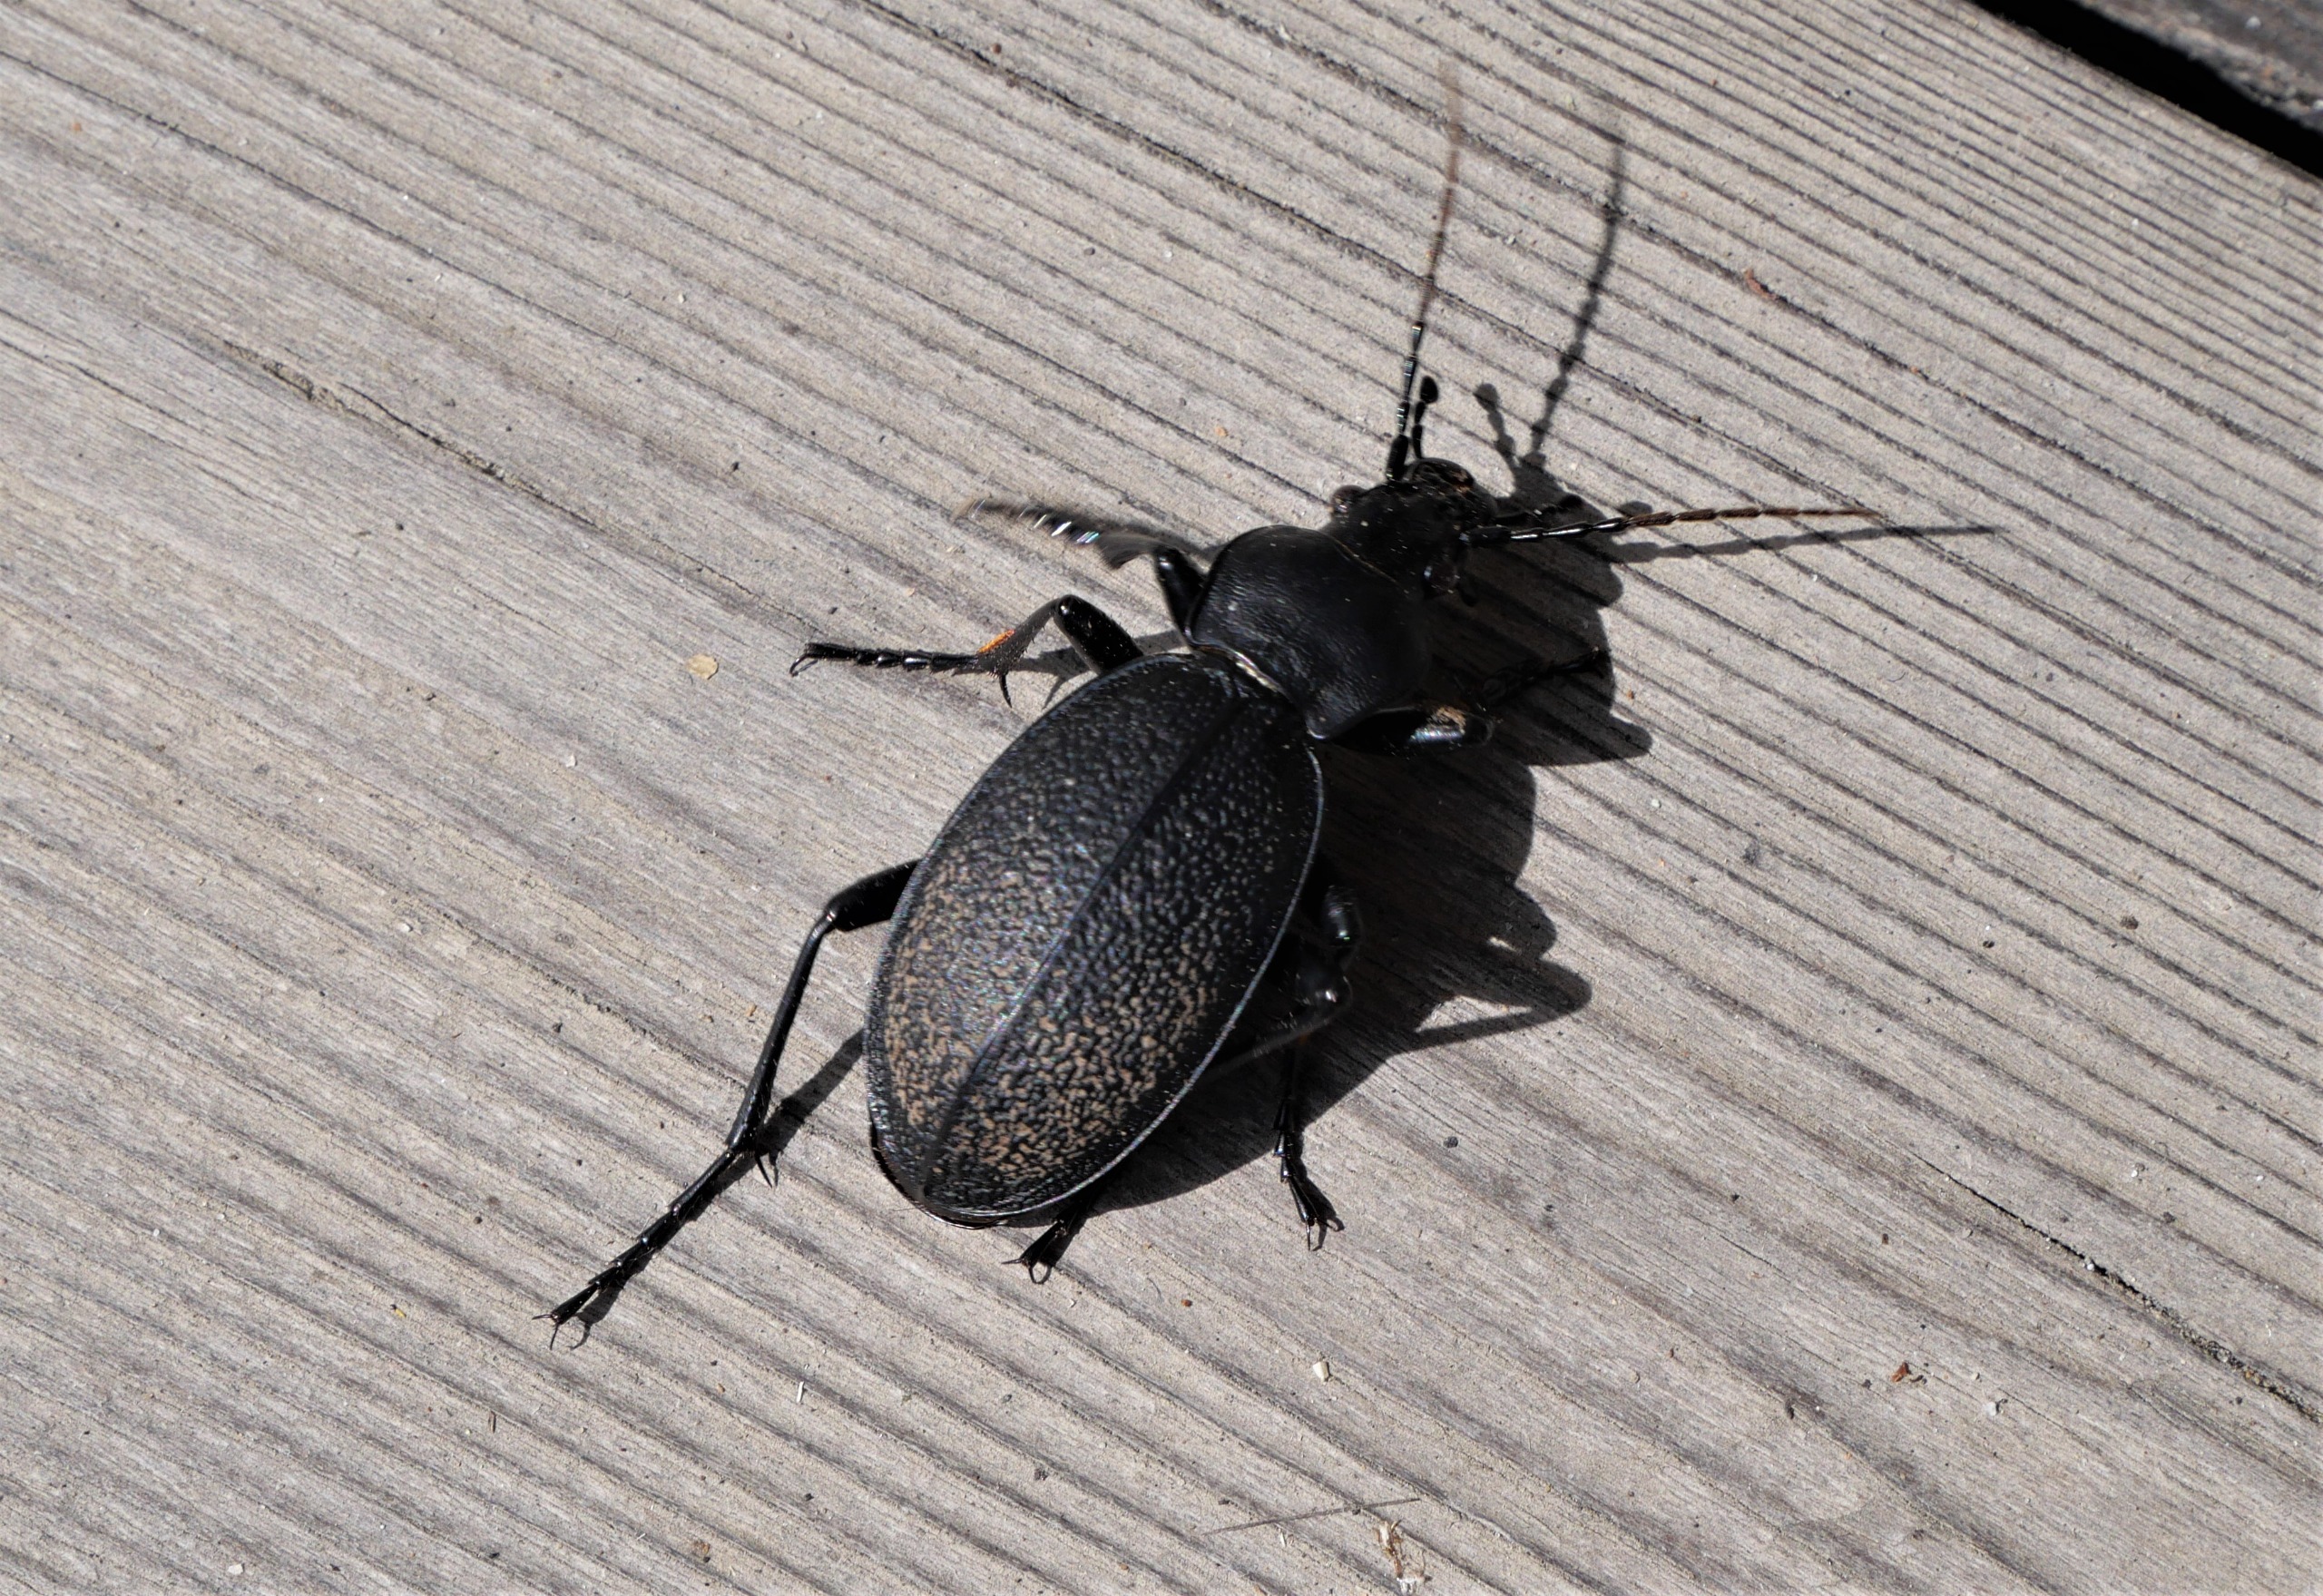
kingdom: Animalia
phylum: Arthropoda
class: Insecta
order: Coleoptera
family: Carabidae
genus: Carabus
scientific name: Carabus coriaceus
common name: Læderløber
